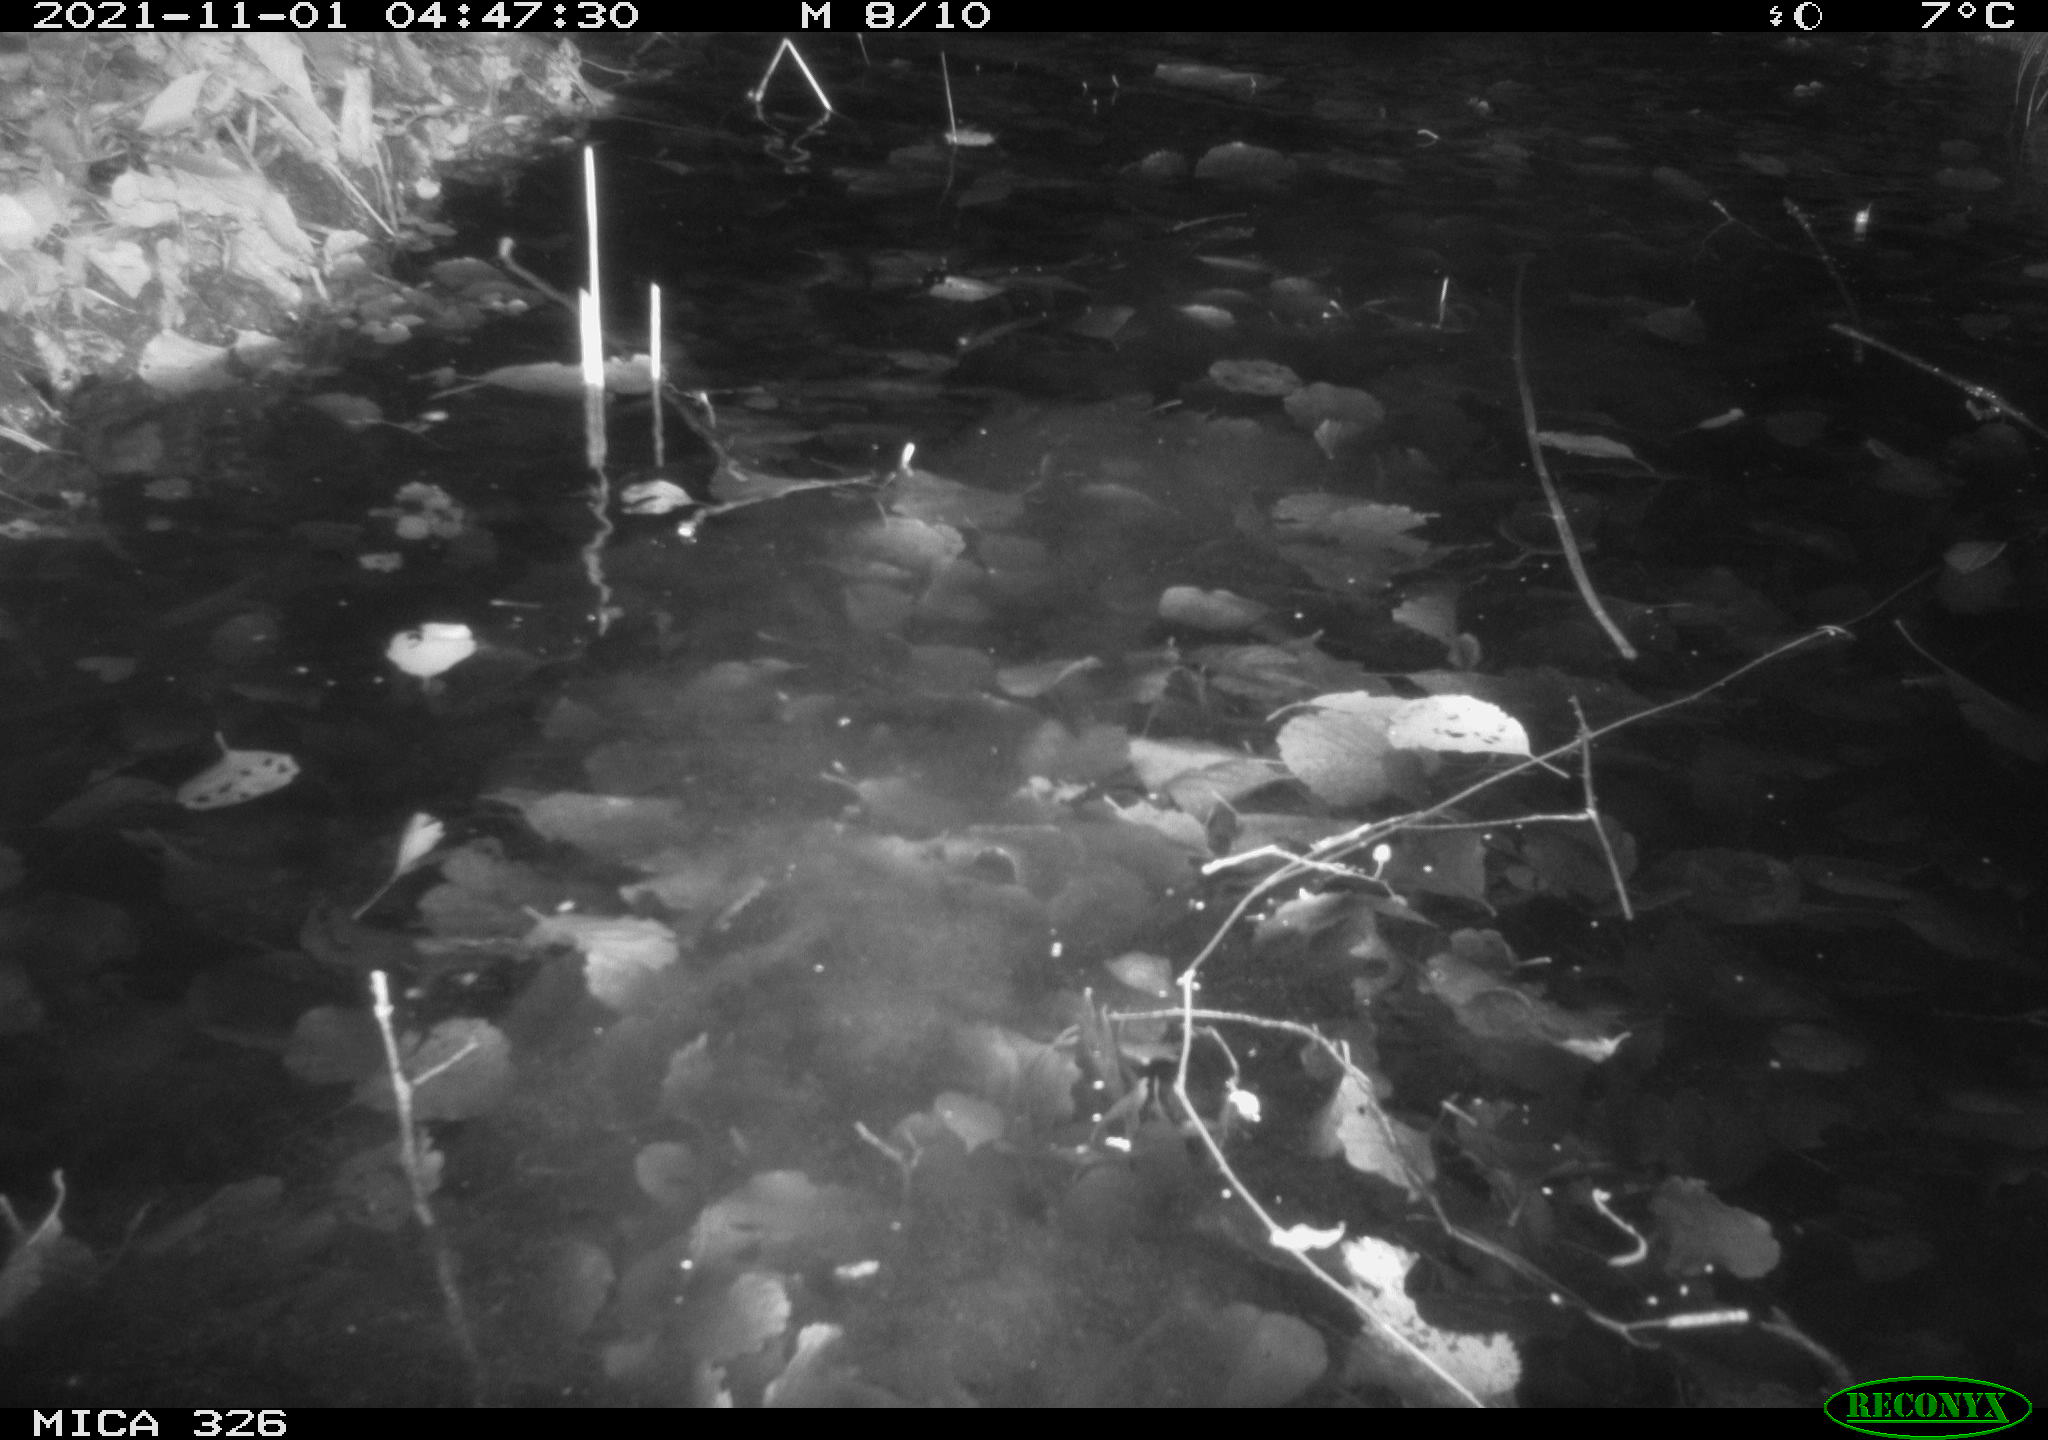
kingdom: Animalia
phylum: Chordata
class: Mammalia
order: Rodentia
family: Myocastoridae
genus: Myocastor
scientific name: Myocastor coypus
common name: Coypu
